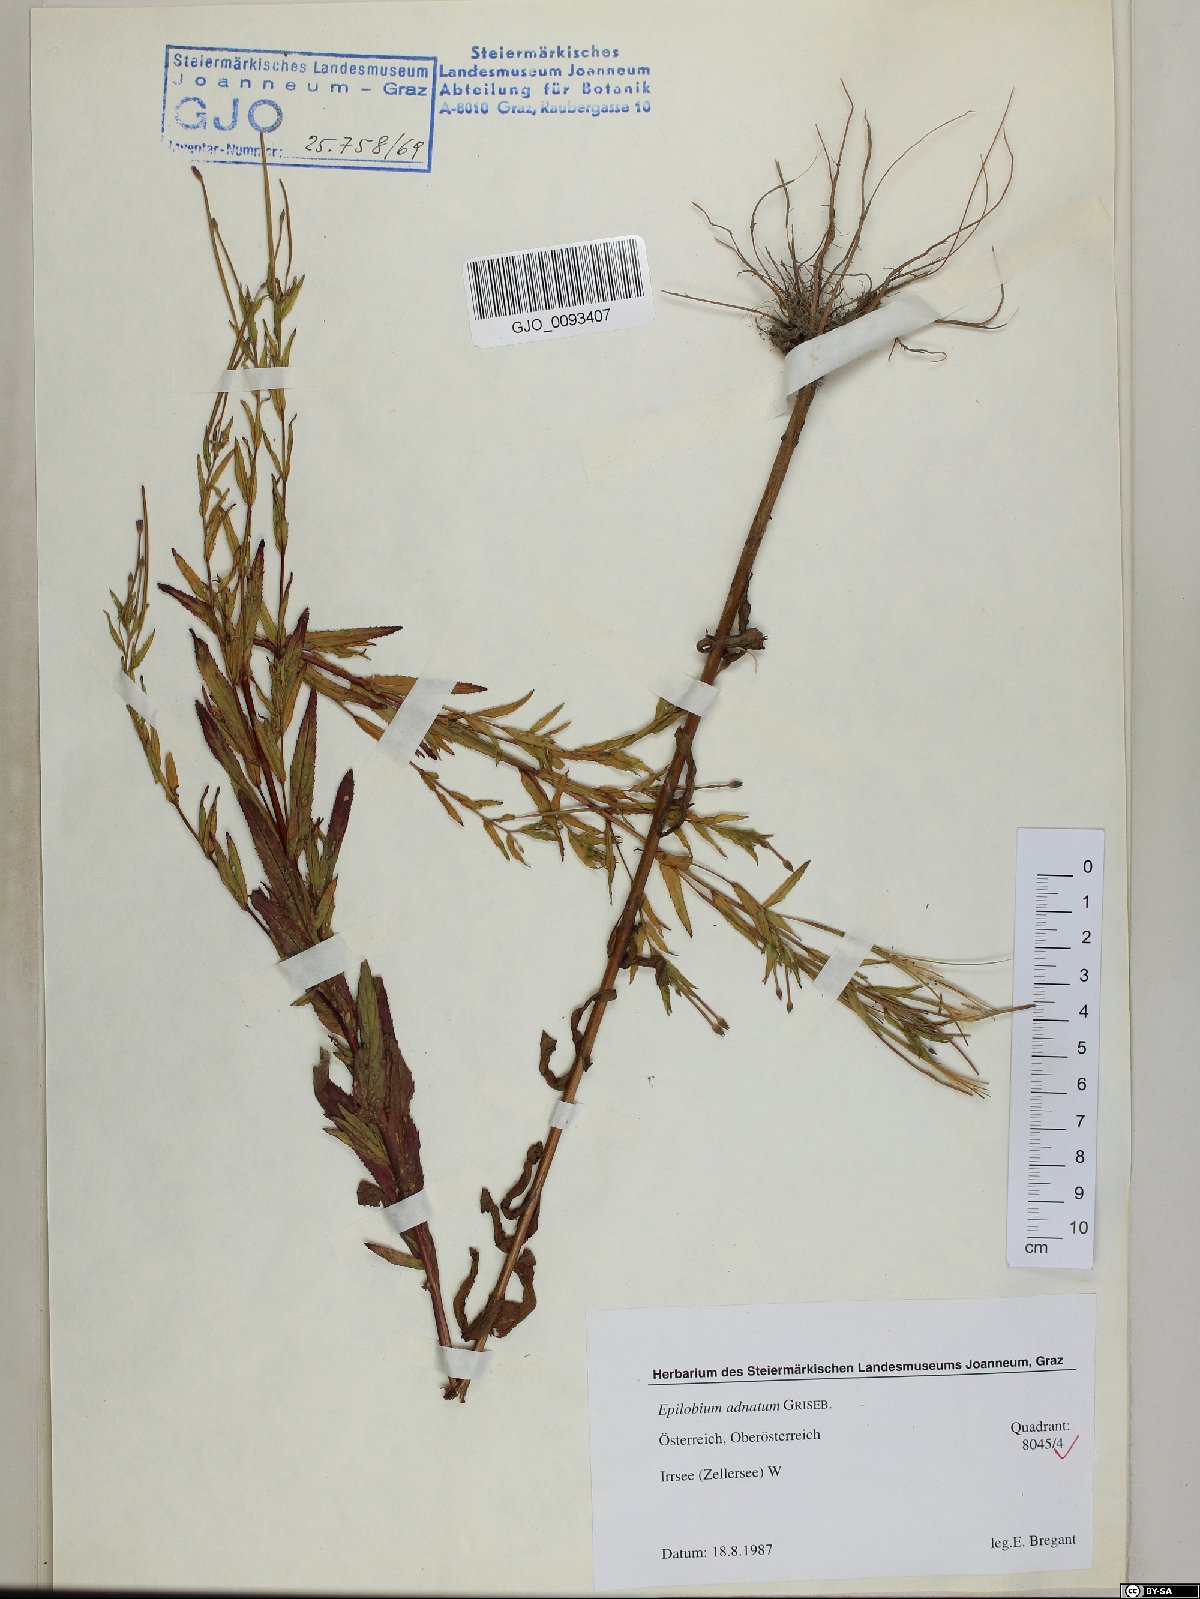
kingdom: Plantae
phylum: Tracheophyta
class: Magnoliopsida
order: Myrtales
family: Onagraceae
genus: Epilobium
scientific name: Epilobium tetragonum
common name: Square-stemmed willowherb
